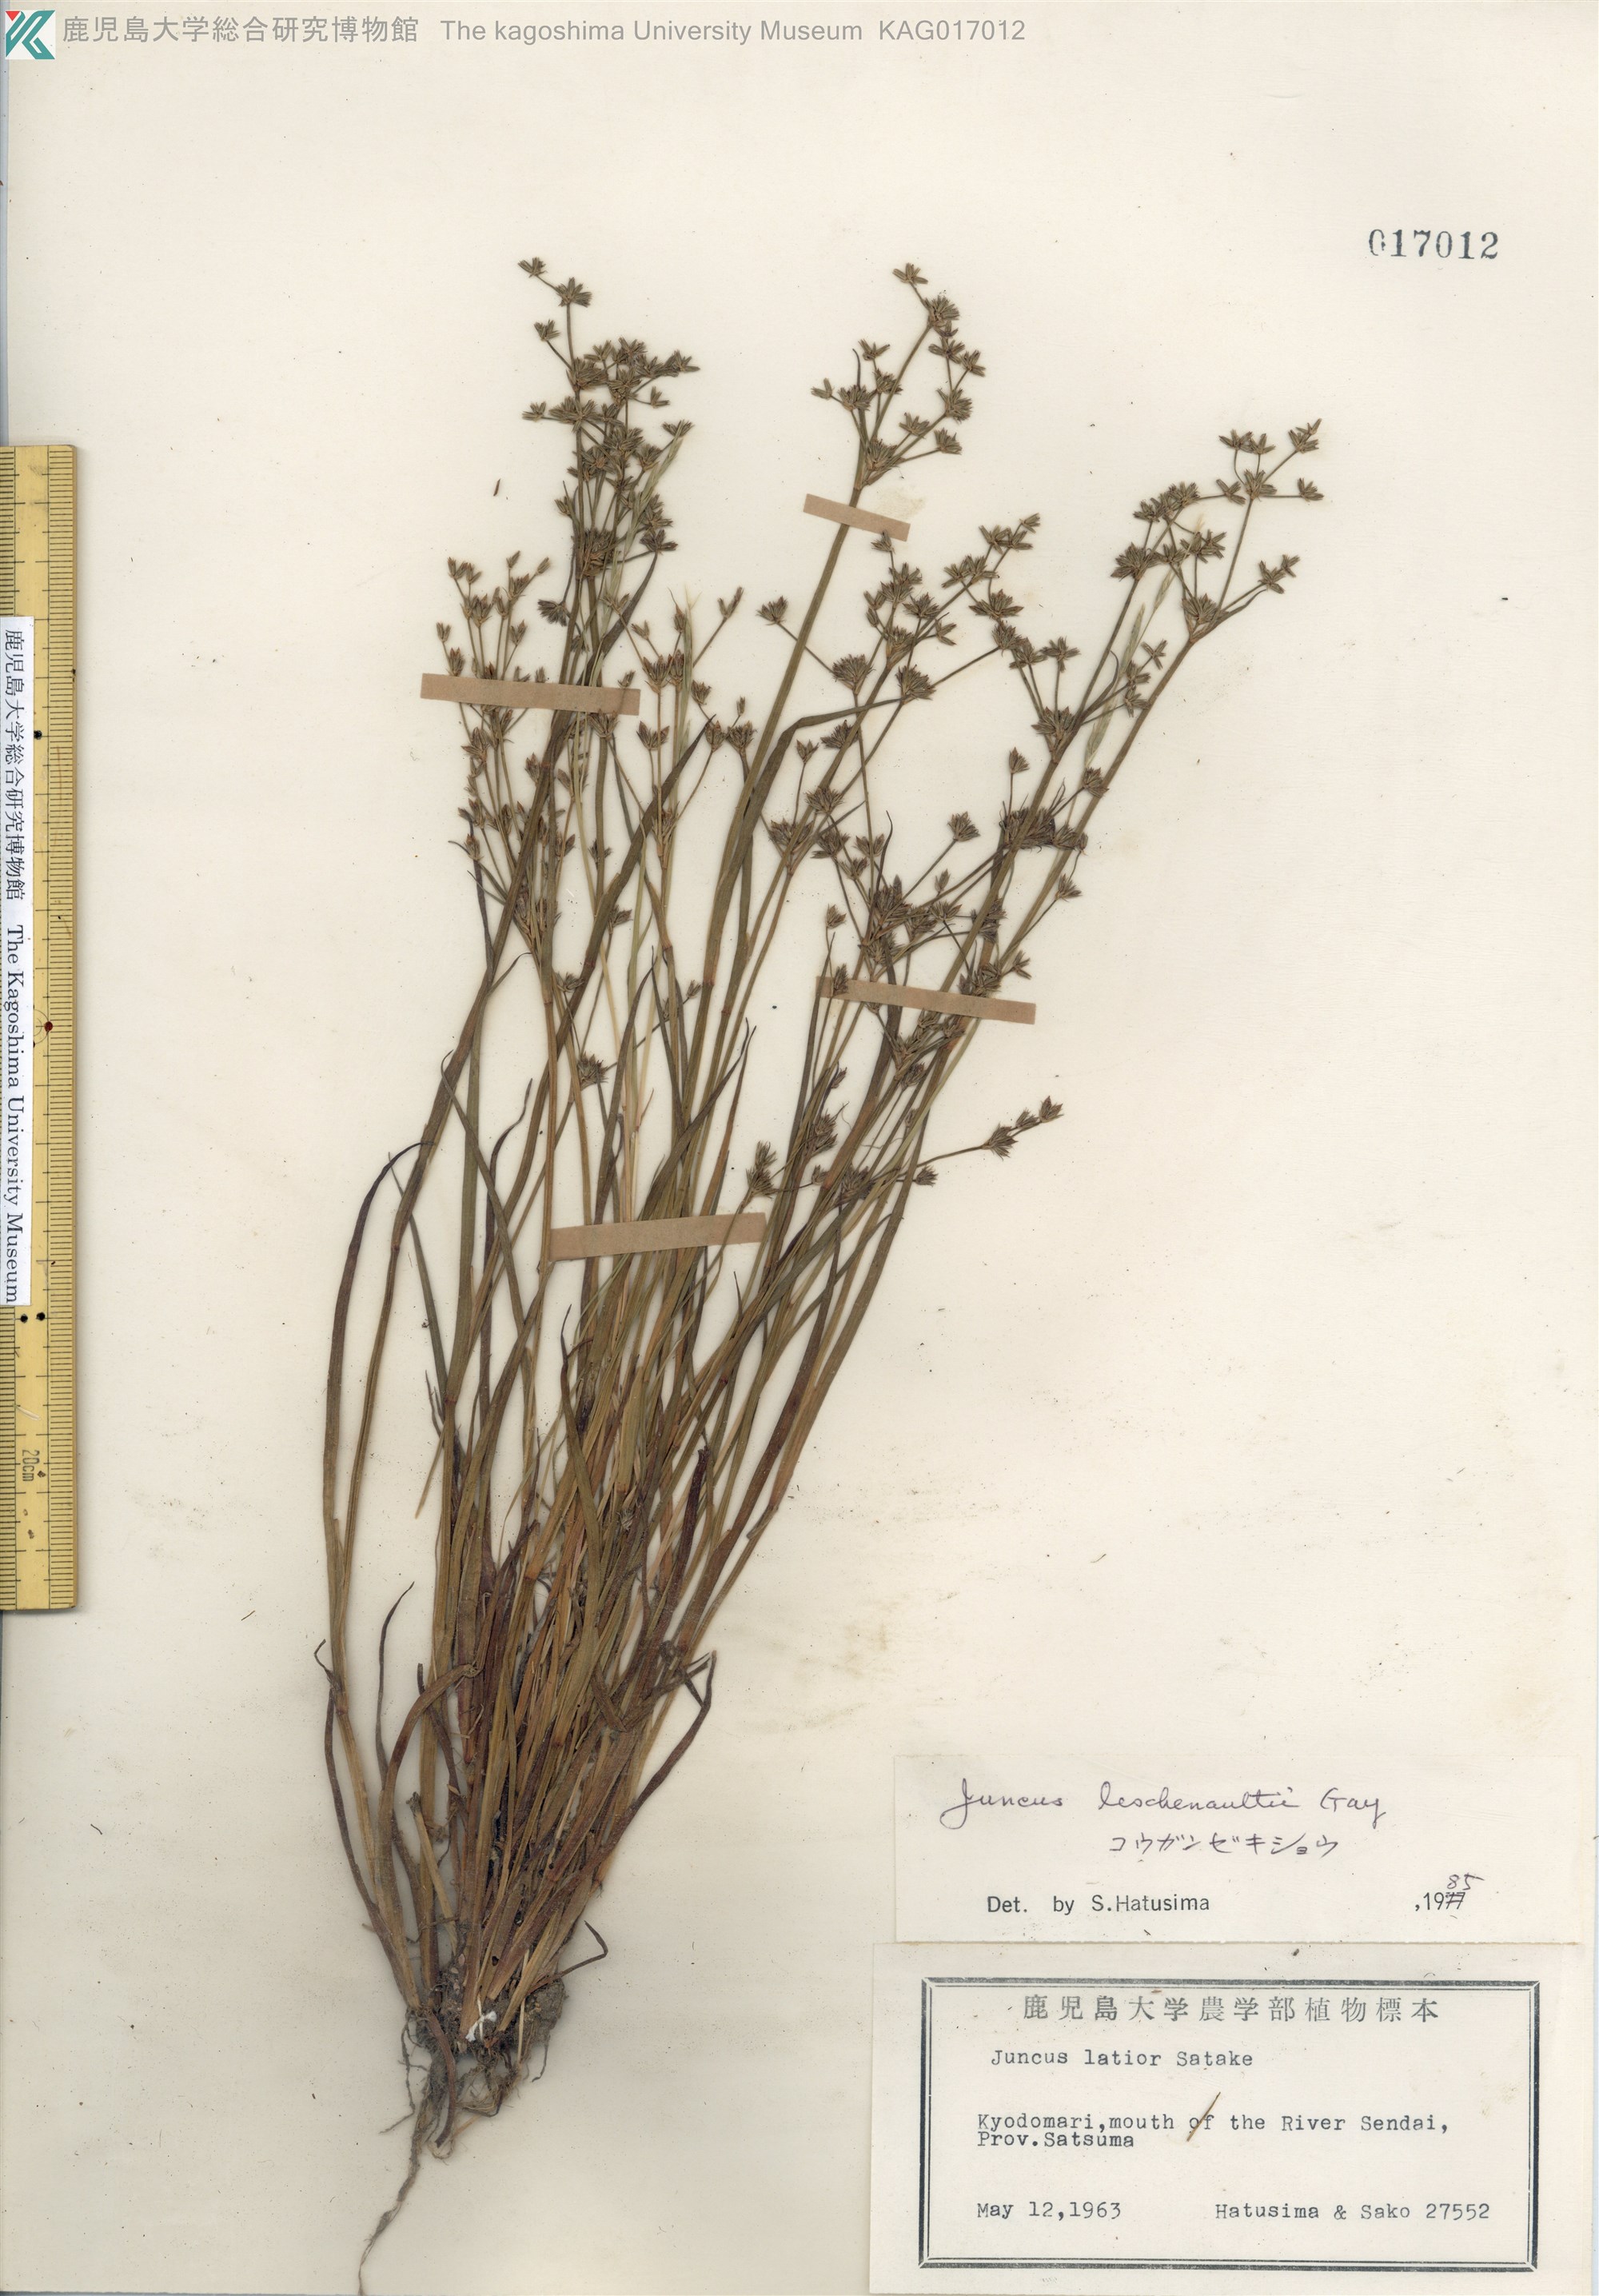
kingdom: Plantae
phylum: Tracheophyta
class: Liliopsida
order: Poales
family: Juncaceae
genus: Juncus
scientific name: Juncus prismatocarpus
